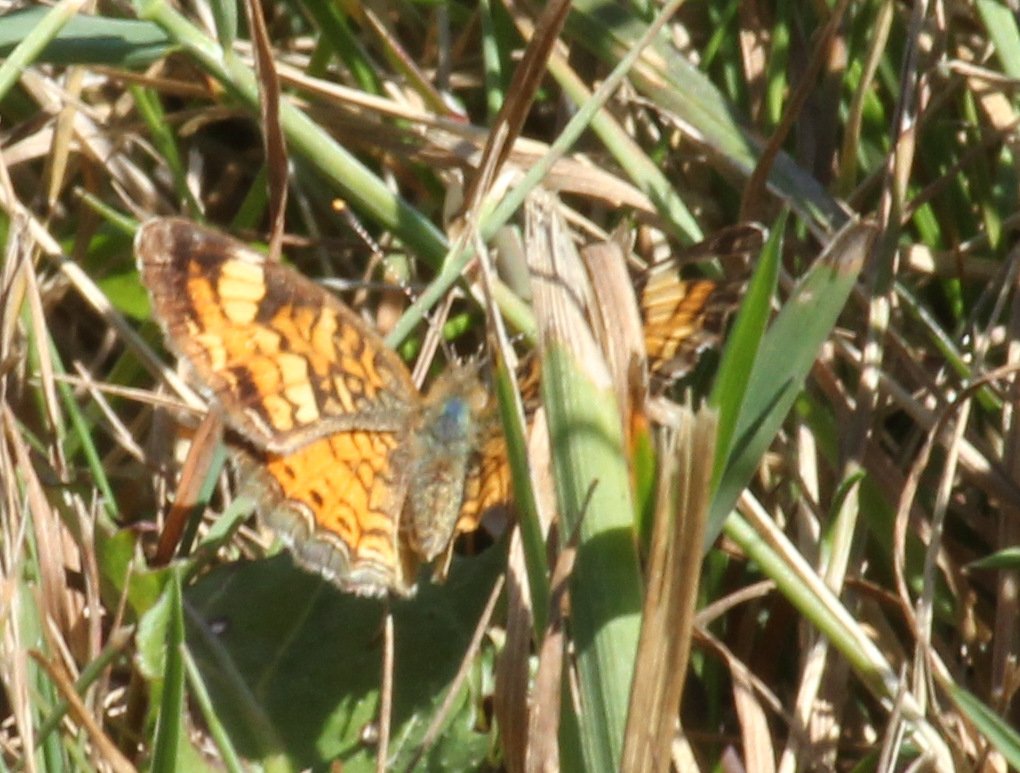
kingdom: Animalia
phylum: Arthropoda
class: Insecta
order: Lepidoptera
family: Nymphalidae
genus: Phyciodes
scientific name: Phyciodes tharos
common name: Northern Crescent
